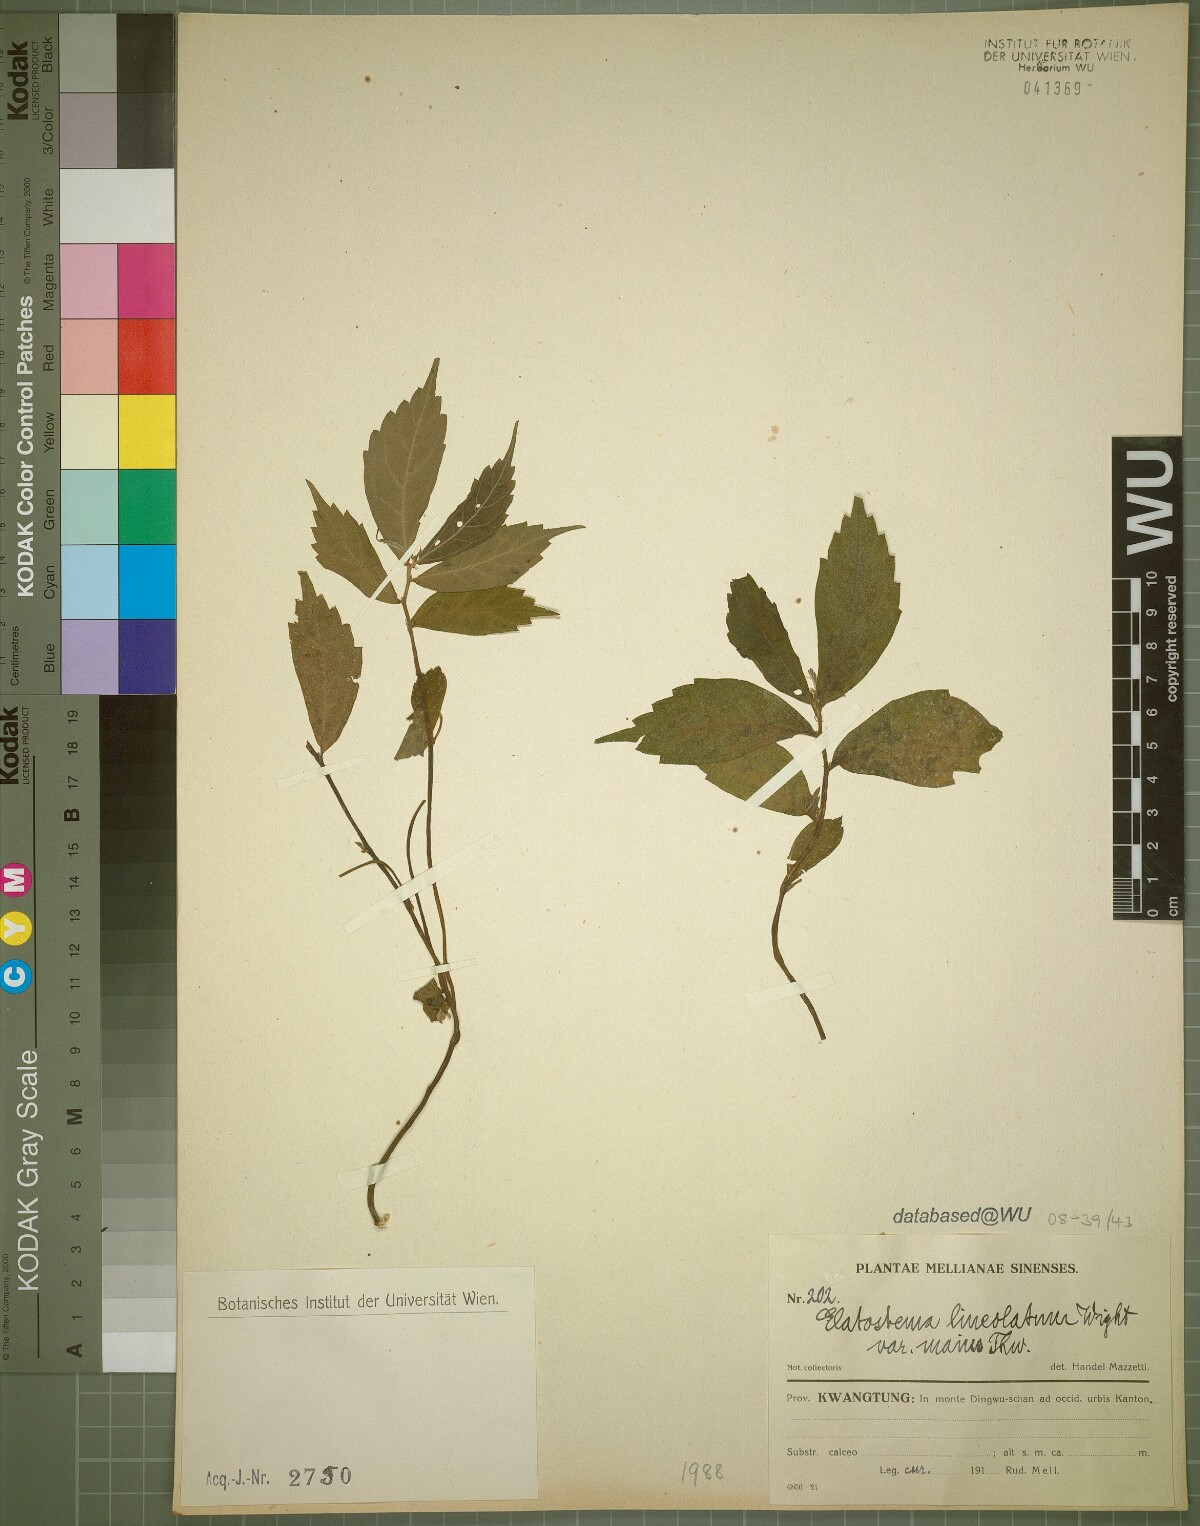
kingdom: Plantae
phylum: Tracheophyta
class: Magnoliopsida
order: Rosales
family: Urticaceae
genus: Elatostema
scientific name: Elatostema lineolatum
